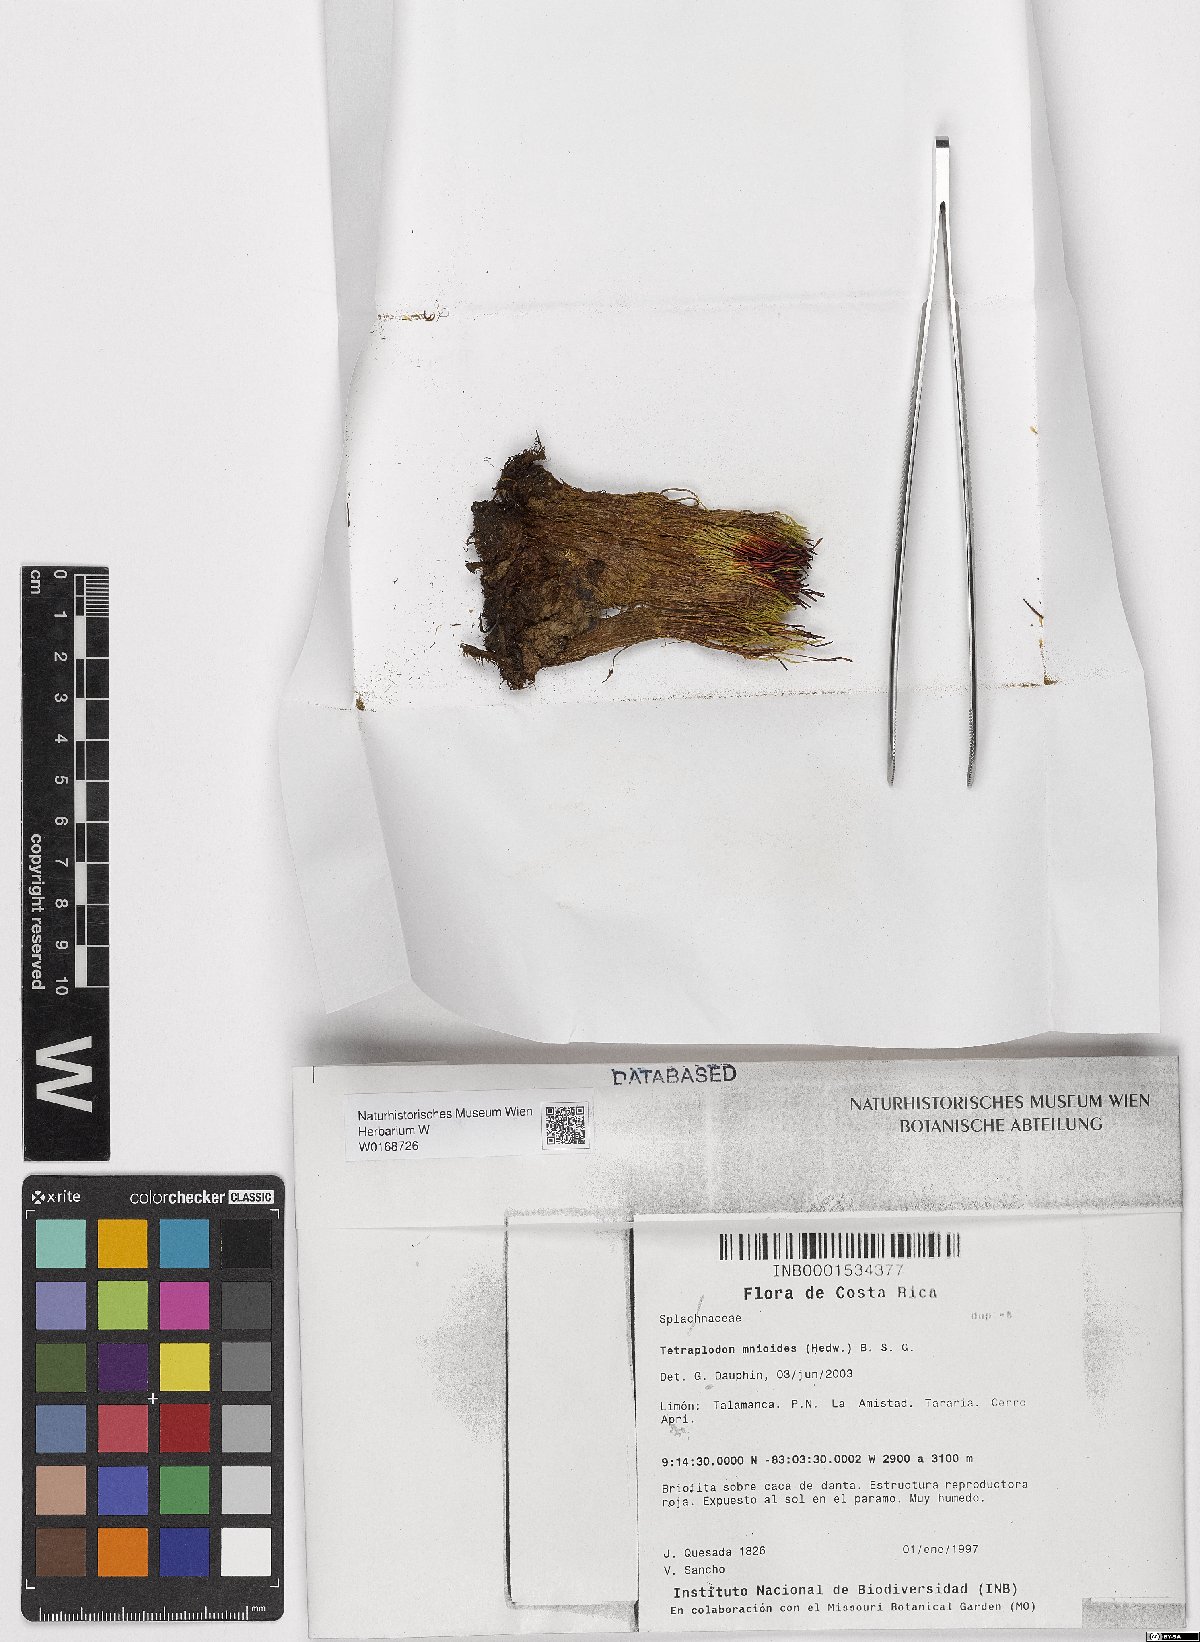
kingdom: Plantae
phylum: Bryophyta
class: Bryopsida
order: Splachnales
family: Splachnaceae
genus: Tetraplodon
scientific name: Tetraplodon mnioides
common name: Entire-leaved nitrogen moss
